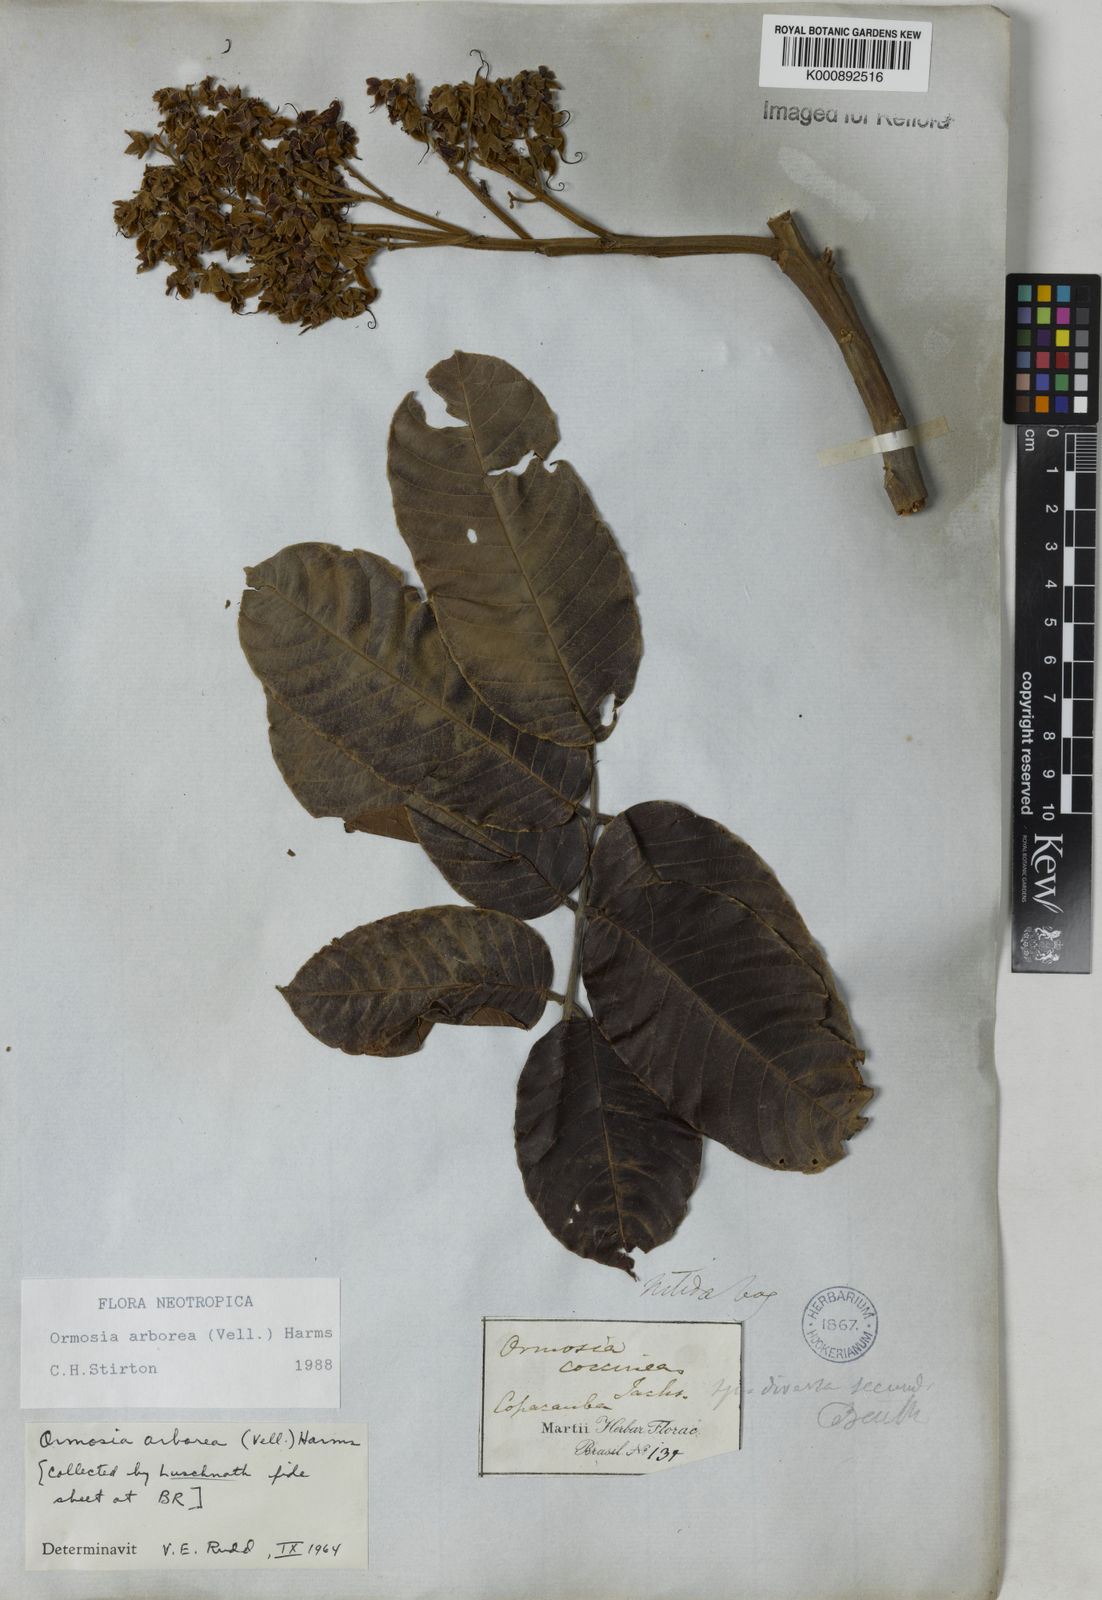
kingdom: Plantae
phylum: Tracheophyta
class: Magnoliopsida
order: Fabales
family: Fabaceae
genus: Ormosia
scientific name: Ormosia arborea
